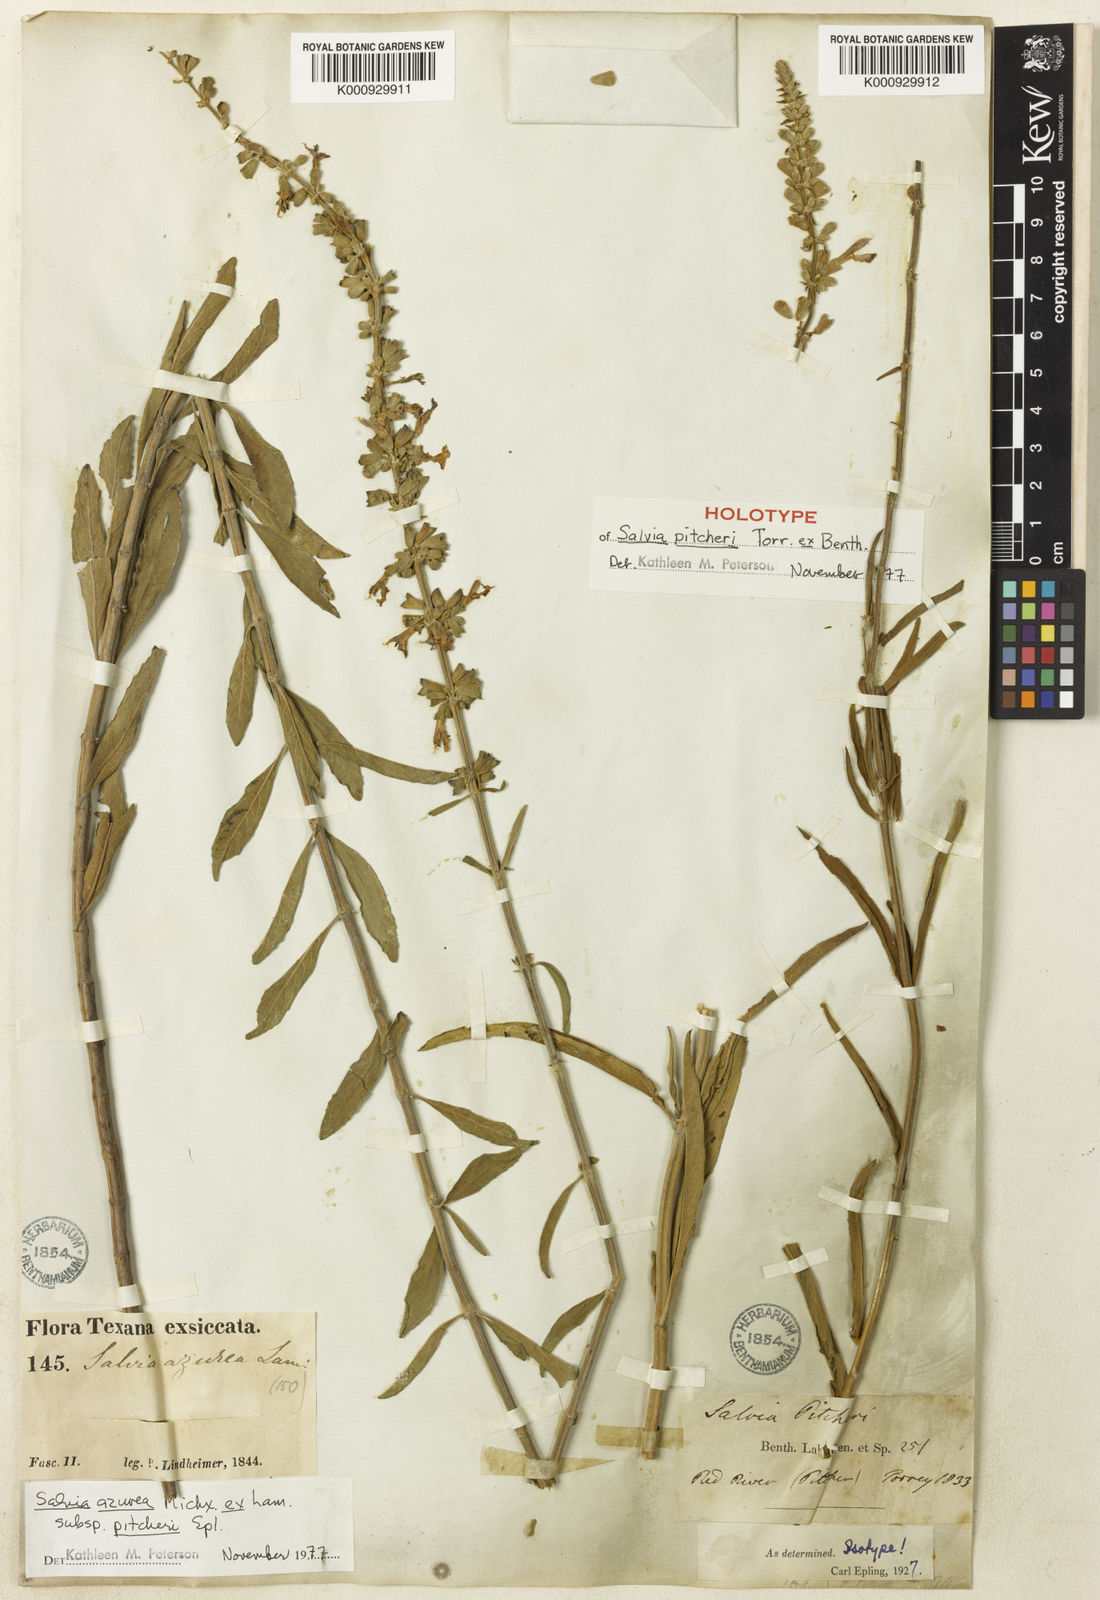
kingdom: Plantae
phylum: Tracheophyta
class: Magnoliopsida
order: Lamiales
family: Lamiaceae
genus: Salvia
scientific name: Salvia azurea
